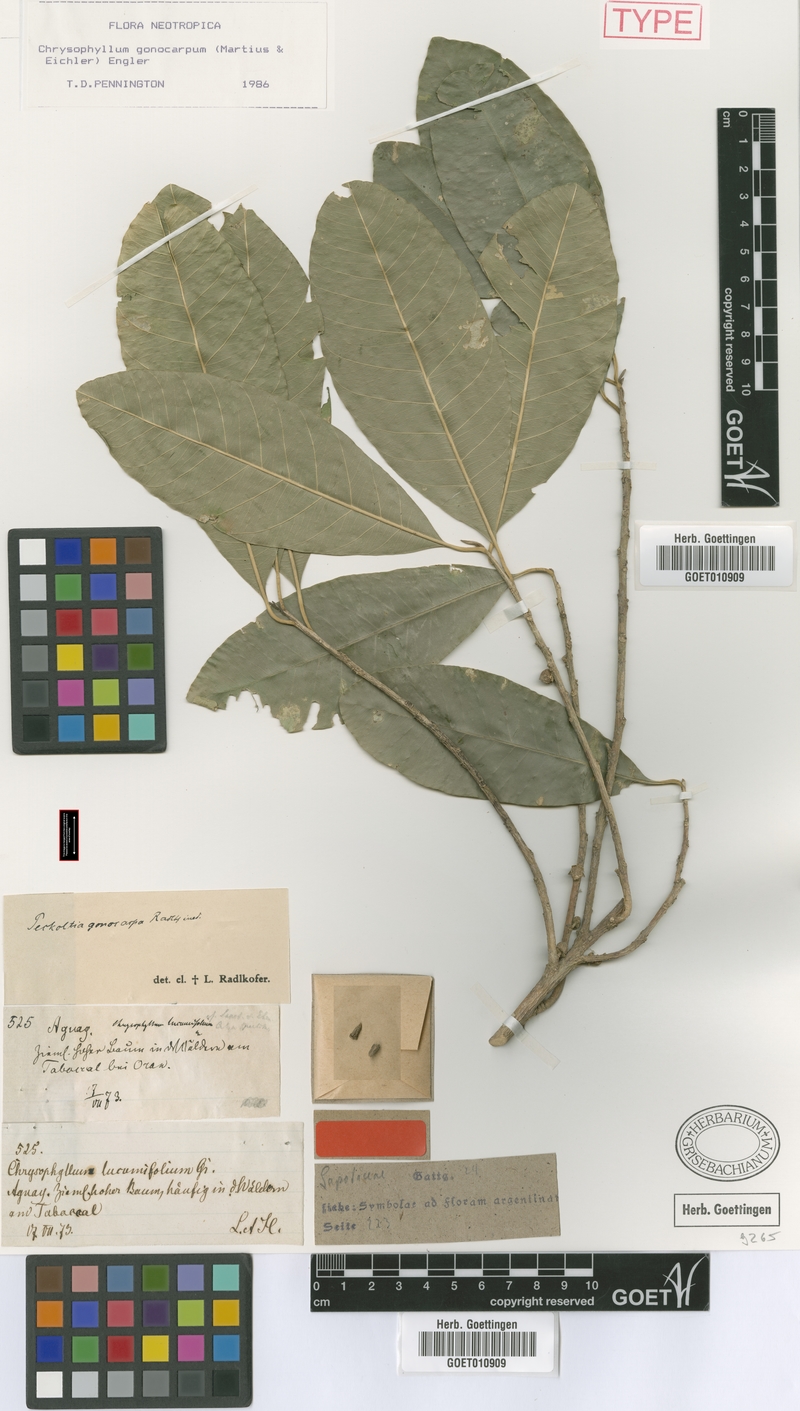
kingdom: Plantae
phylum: Tracheophyta
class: Magnoliopsida
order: Ericales
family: Sapotaceae
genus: Chrysophyllum
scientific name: Chrysophyllum gonocarpum
